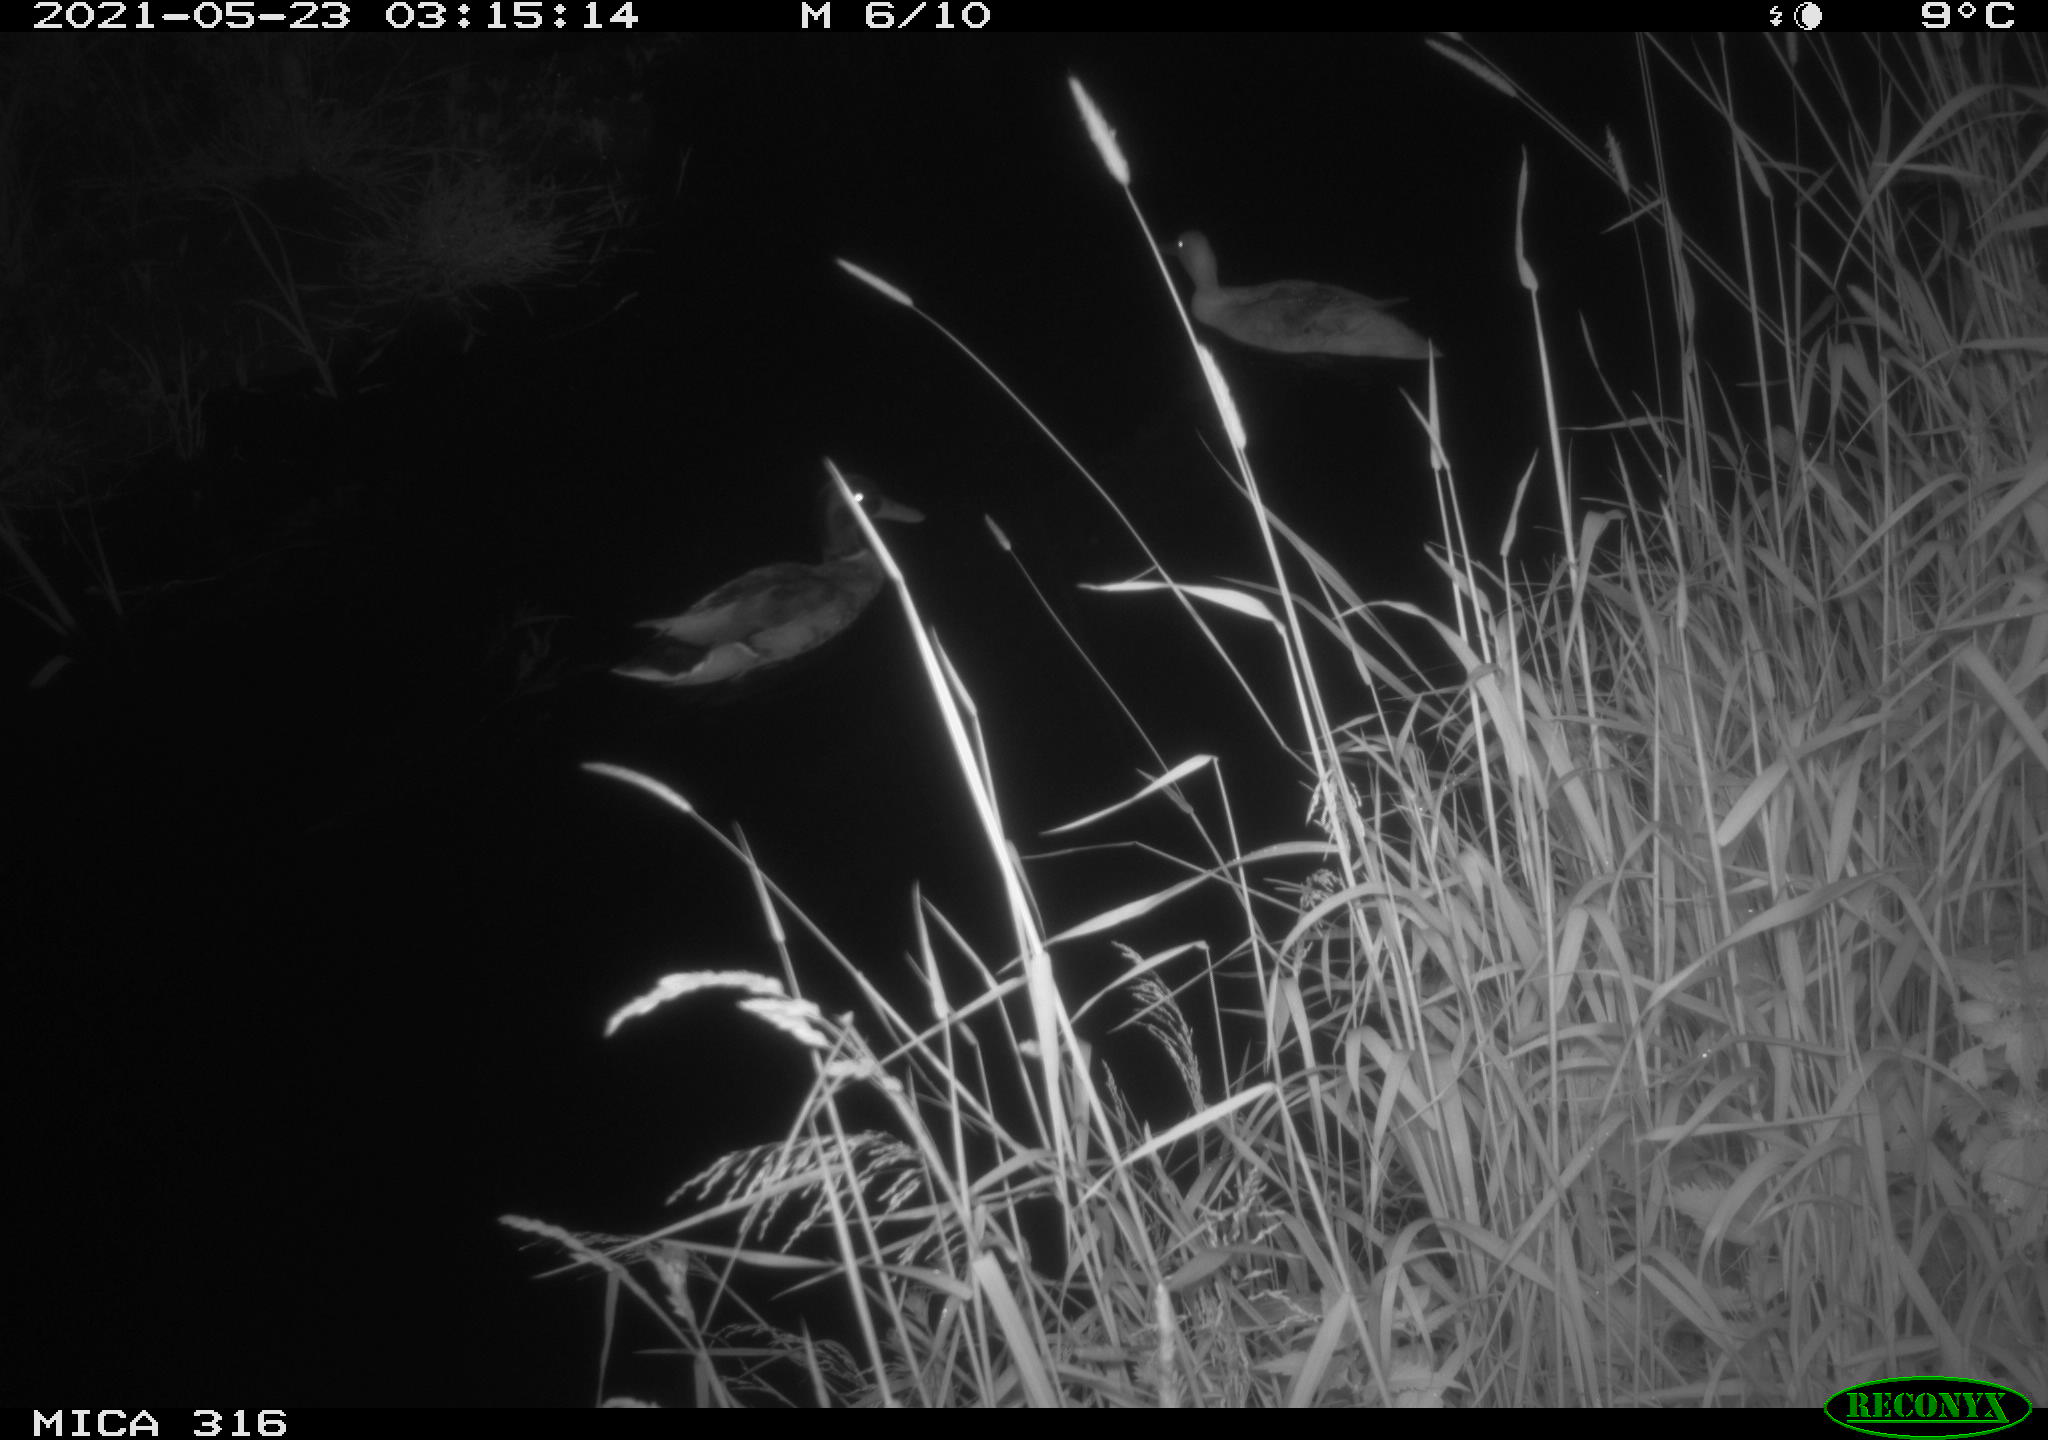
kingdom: Animalia
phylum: Chordata
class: Aves
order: Anseriformes
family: Anatidae
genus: Anas
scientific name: Anas platyrhynchos
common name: Mallard
